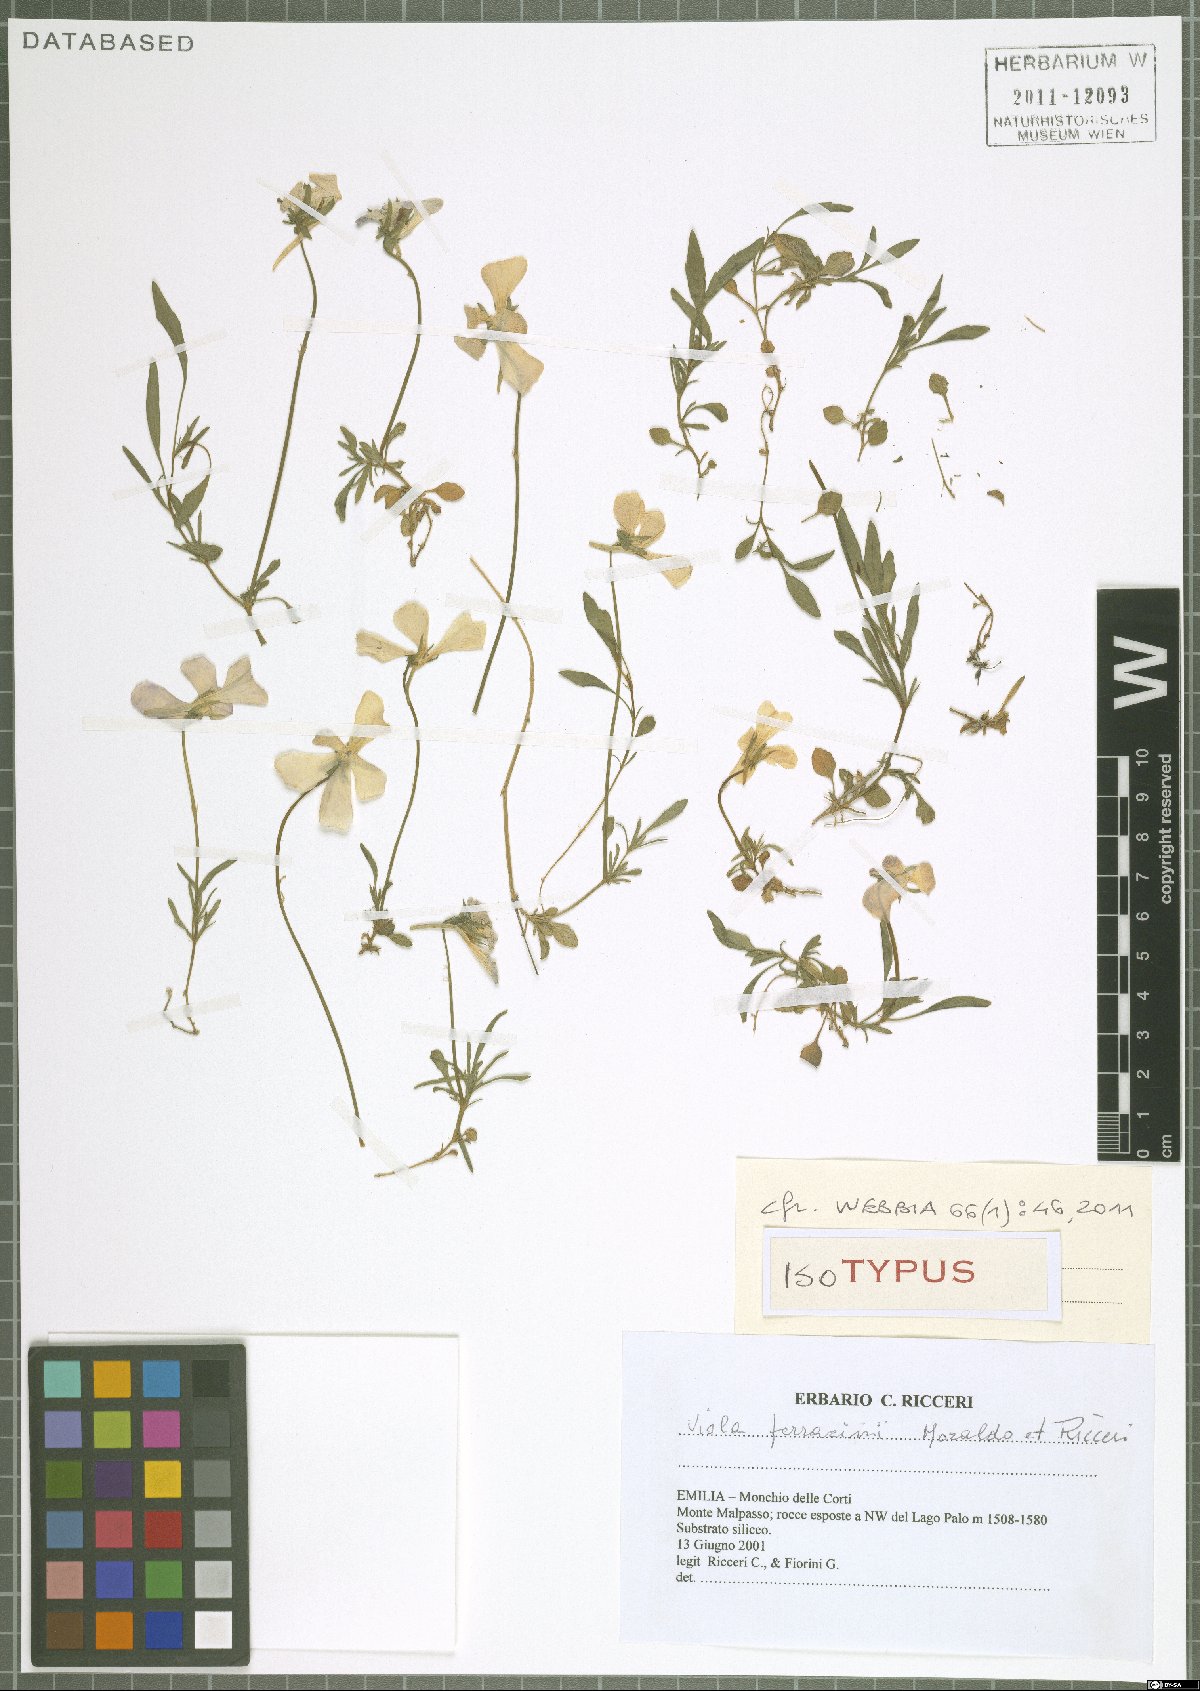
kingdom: Plantae
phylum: Tracheophyta
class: Magnoliopsida
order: Malpighiales
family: Violaceae
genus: Viola
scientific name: Viola ferrarinii
